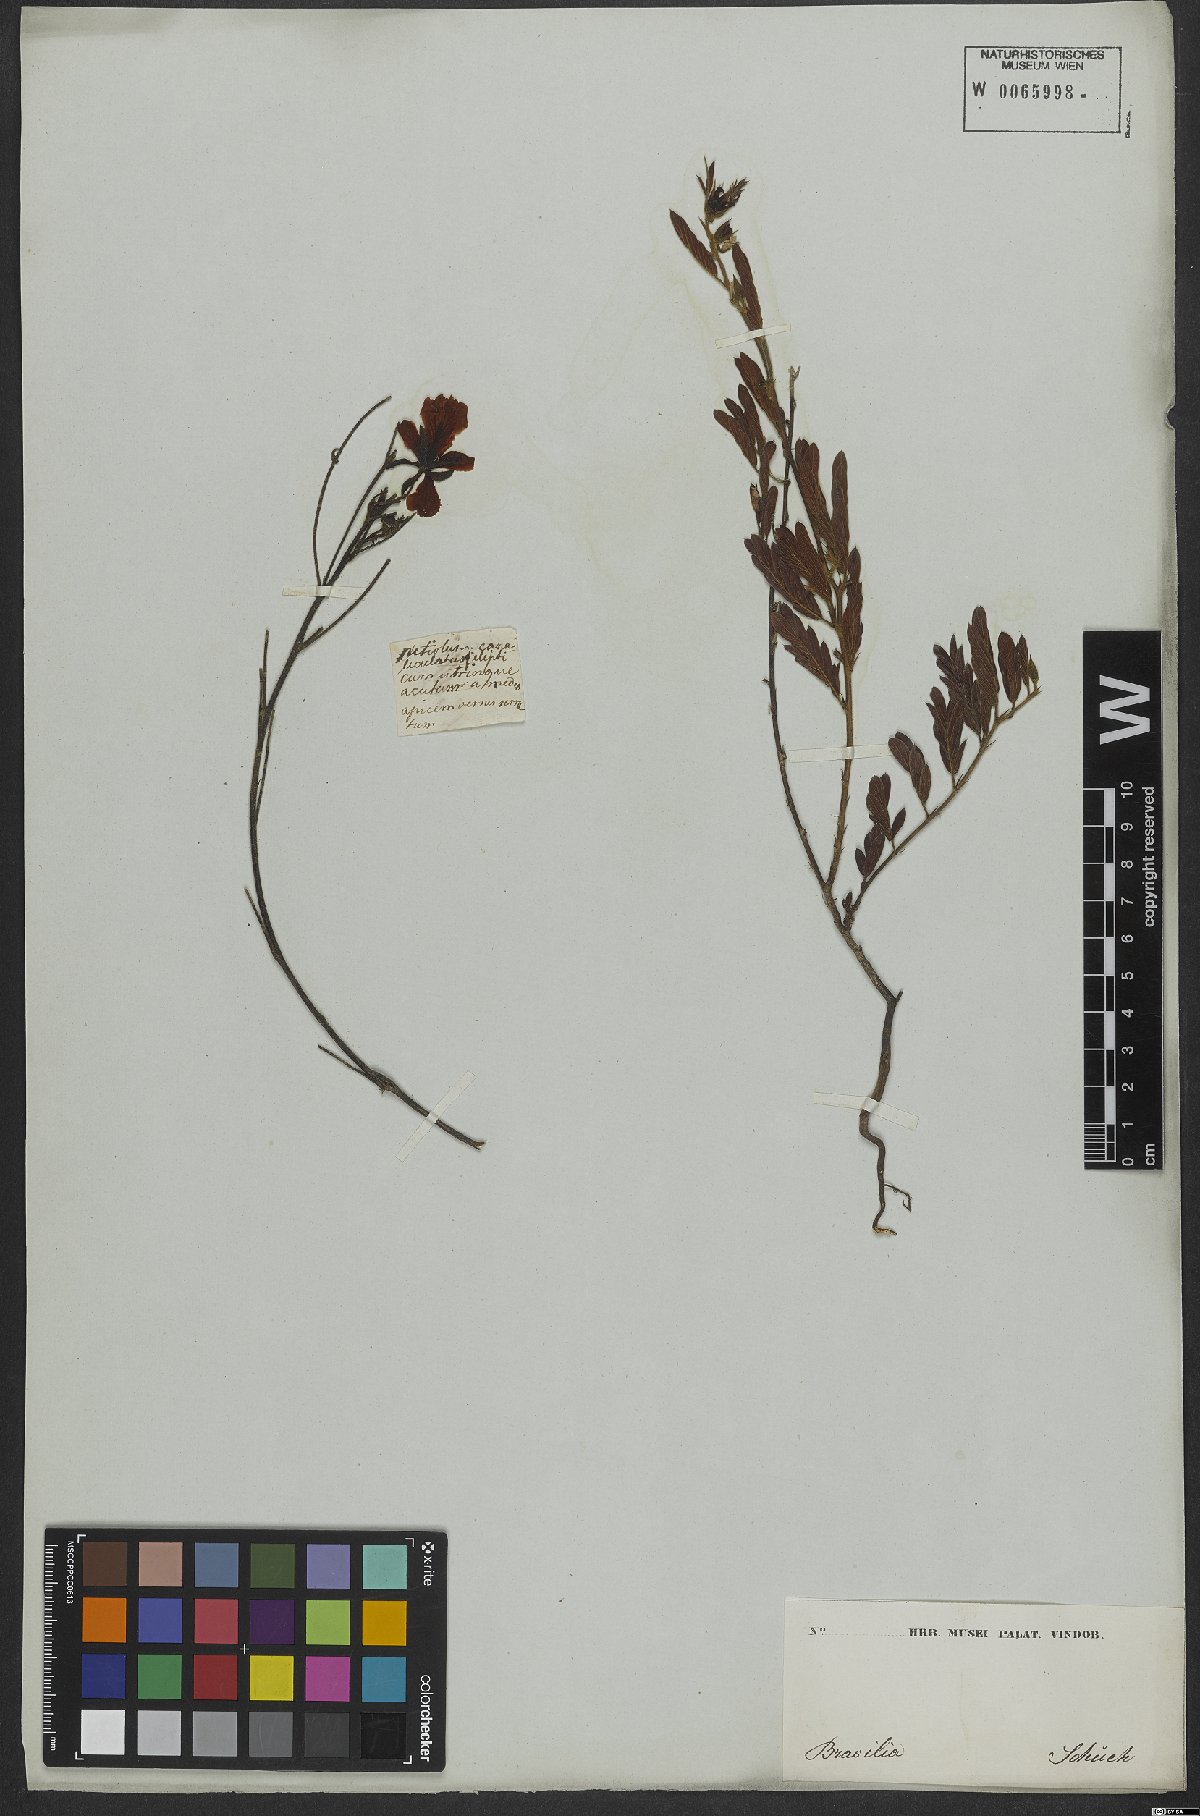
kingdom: Plantae
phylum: Tracheophyta
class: Magnoliopsida
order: Fabales
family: Fabaceae
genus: Chamaecrista
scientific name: Chamaecrista repens
